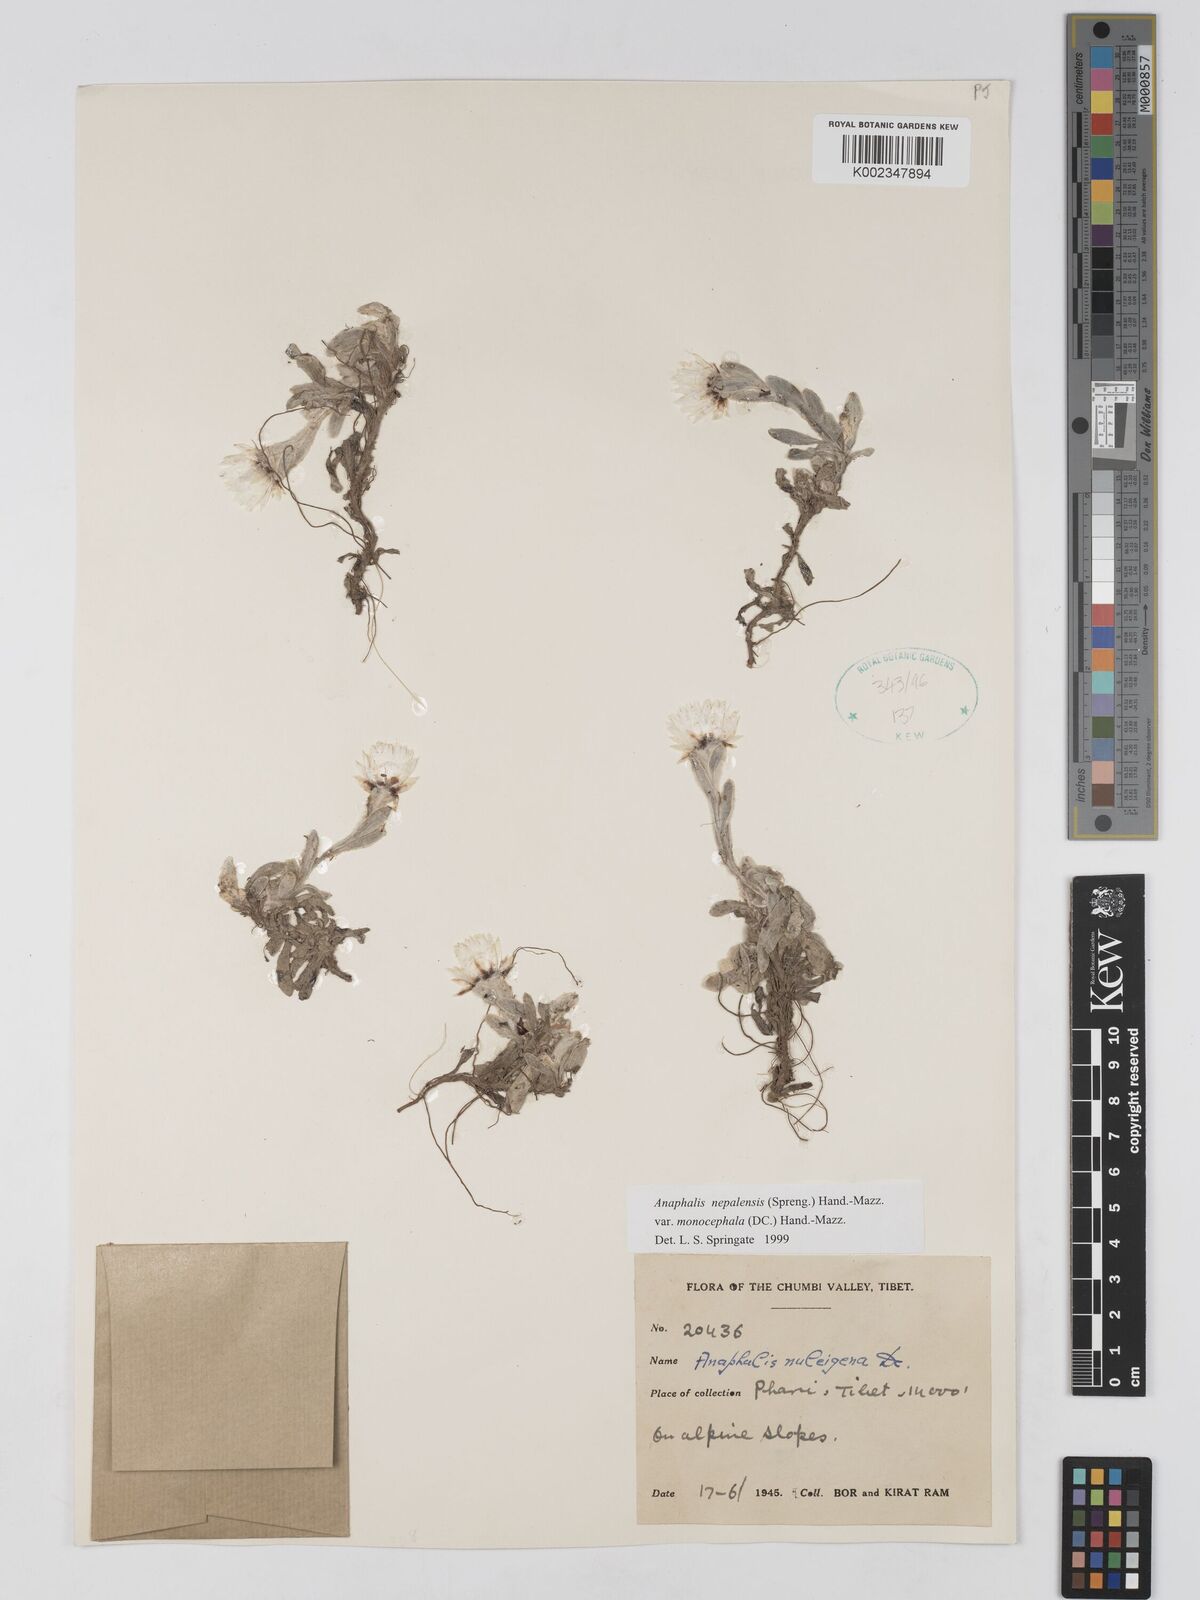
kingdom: Plantae
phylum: Tracheophyta
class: Magnoliopsida
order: Asterales
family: Asteraceae
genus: Anaphalis
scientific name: Anaphalis nepalensis
